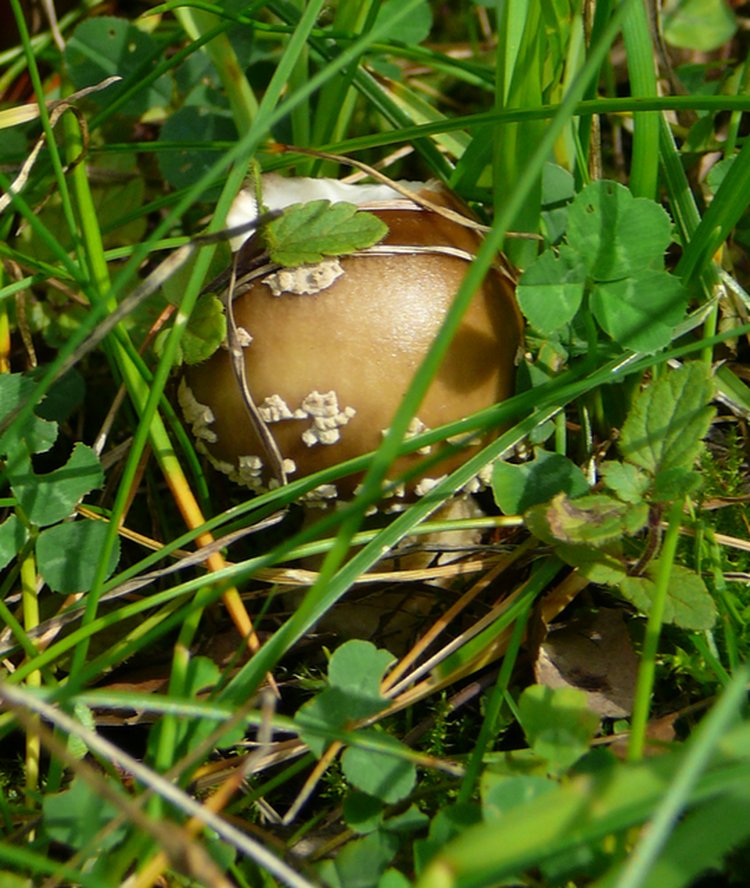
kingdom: Fungi
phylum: Basidiomycota
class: Agaricomycetes
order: Agaricales
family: Amanitaceae
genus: Amanita
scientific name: Amanita pantherina
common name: panter-fluesvamp
